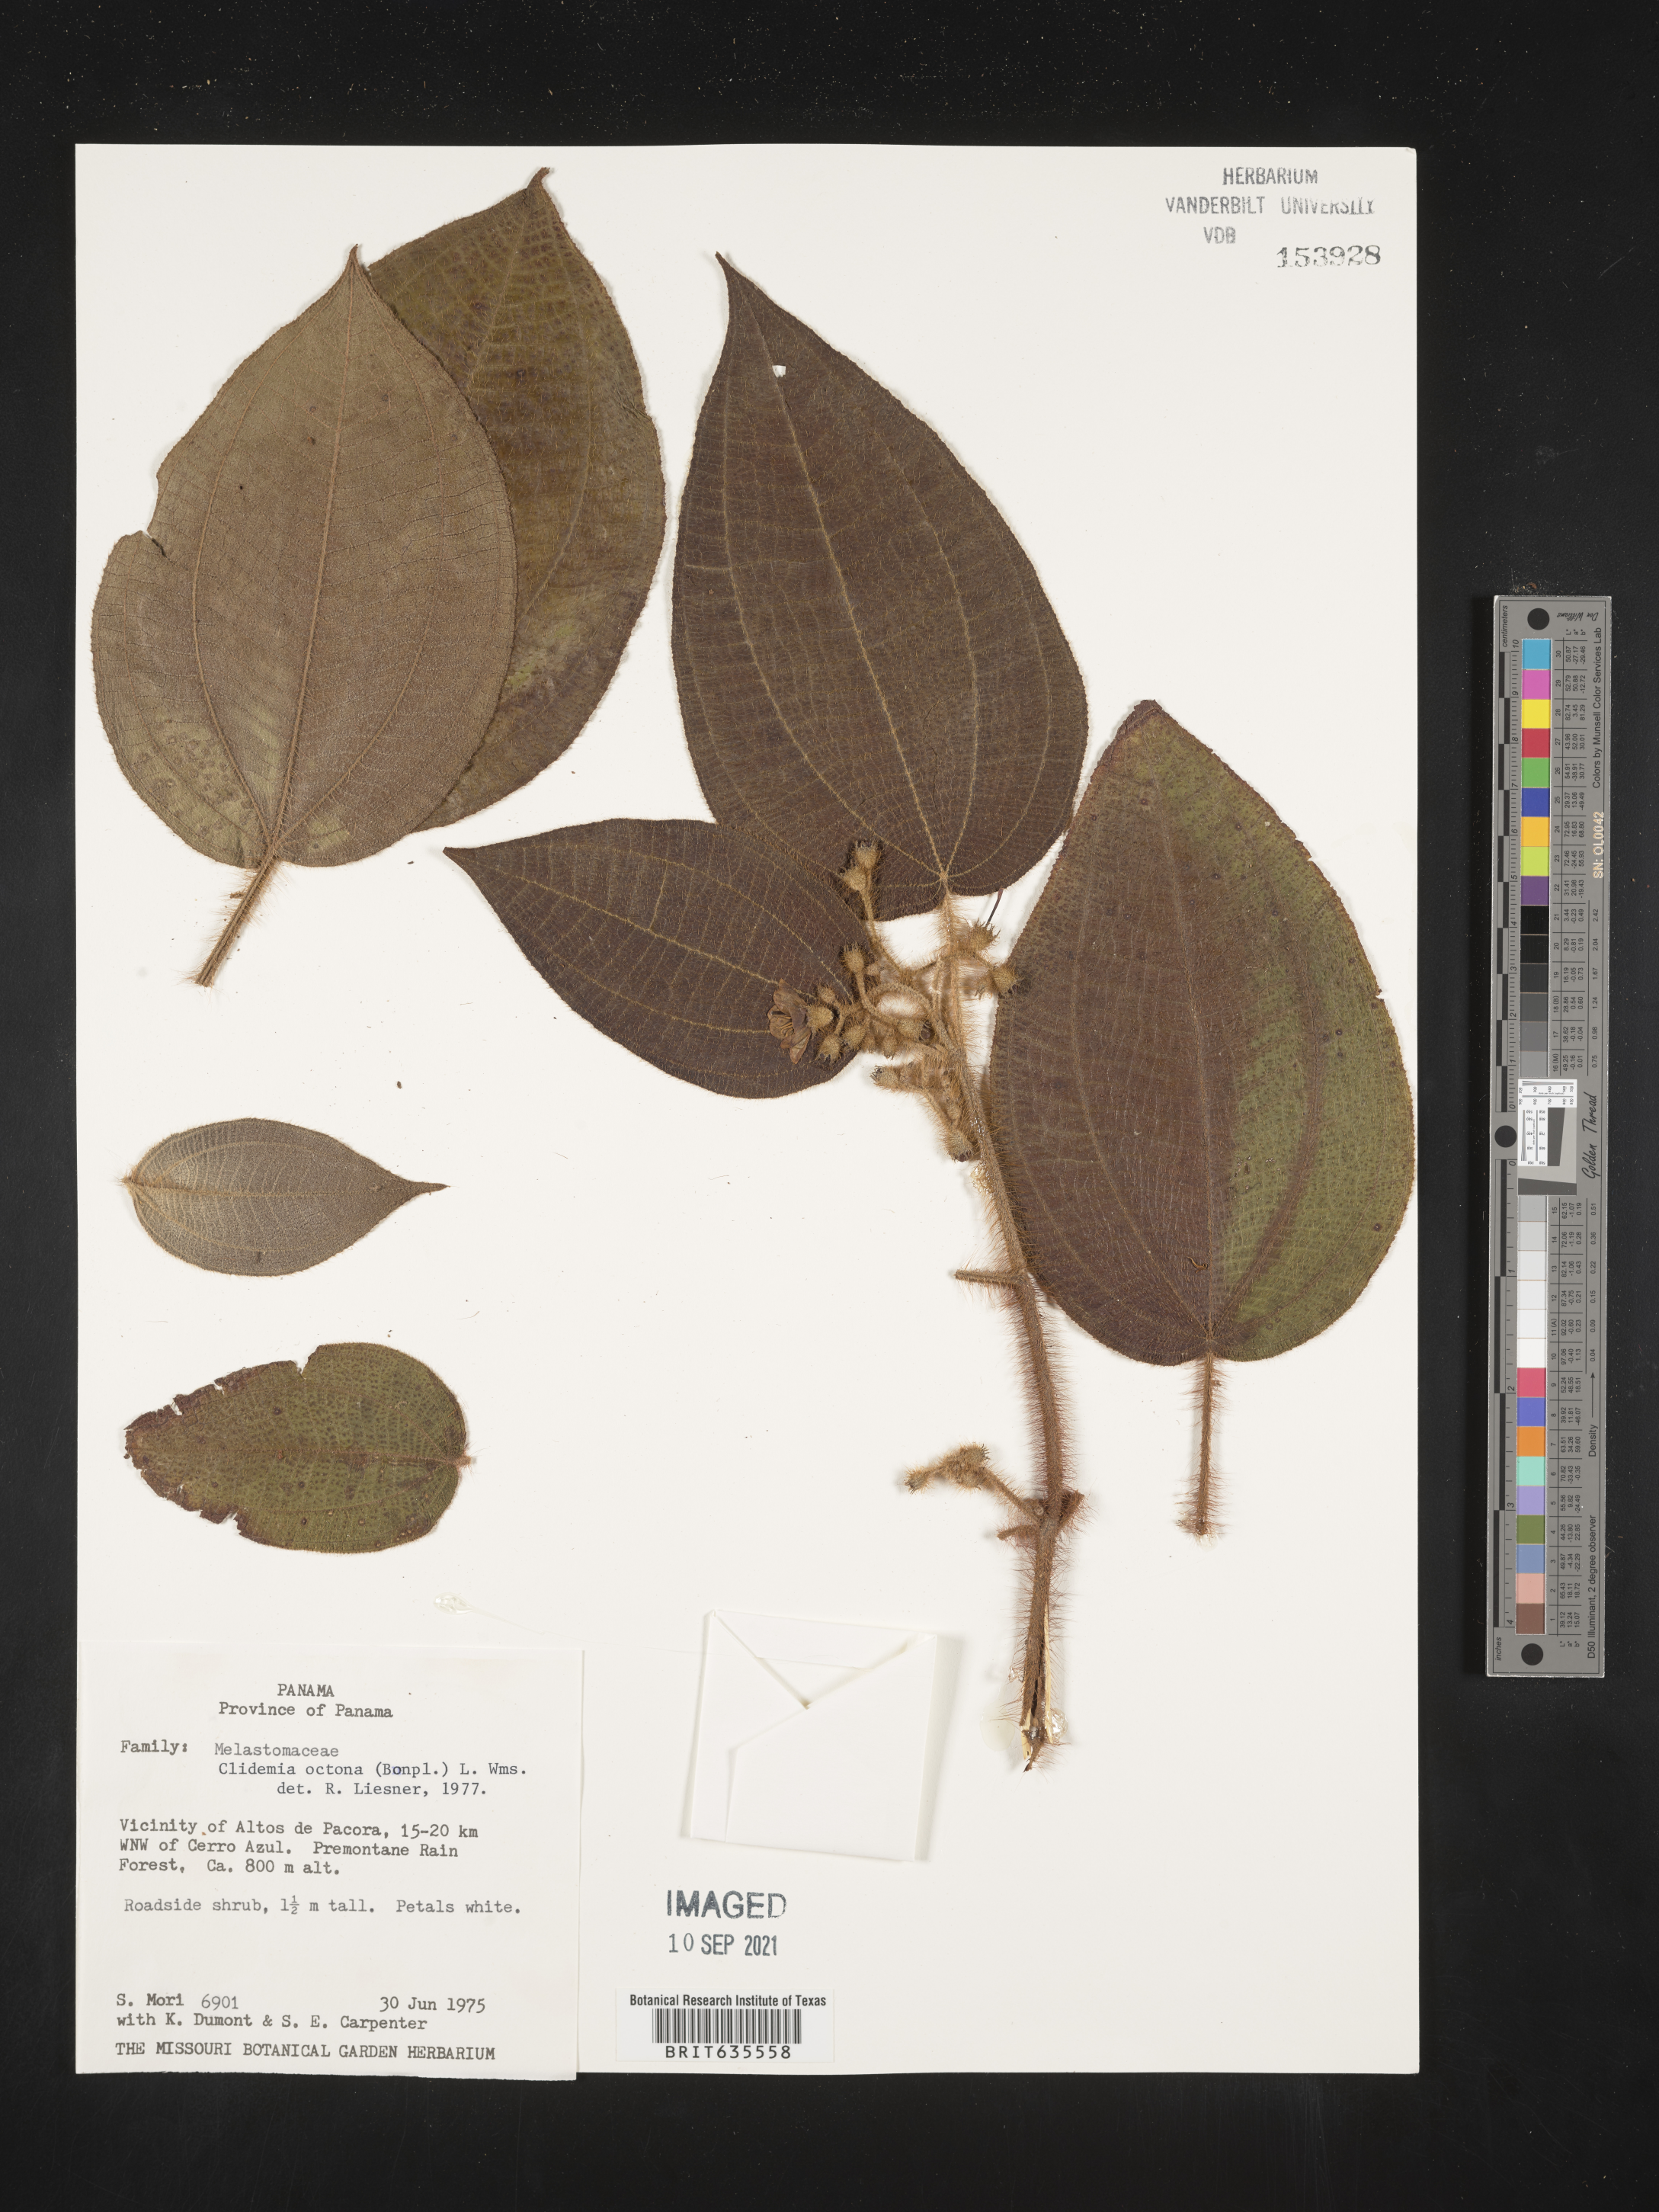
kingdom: Plantae
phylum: Tracheophyta
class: Magnoliopsida
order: Myrtales
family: Melastomataceae
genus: Miconia
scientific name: Miconia
